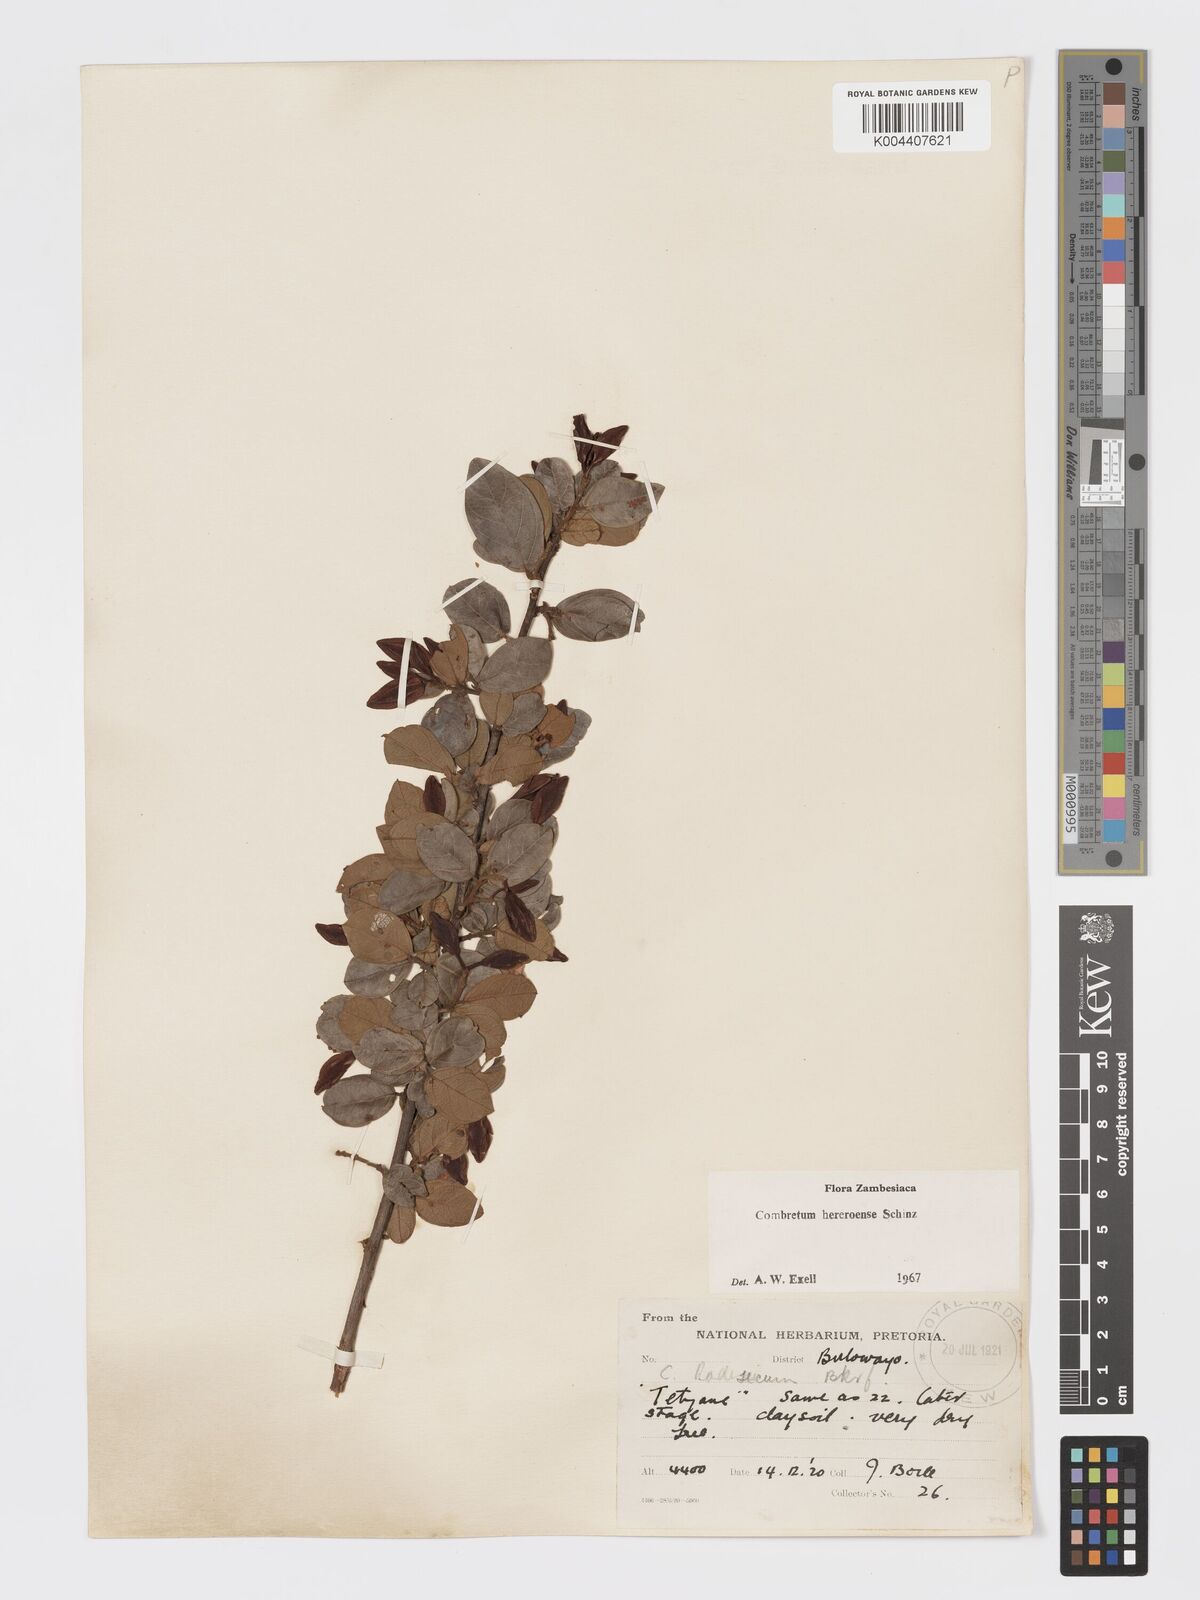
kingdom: Plantae
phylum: Tracheophyta
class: Magnoliopsida
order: Myrtales
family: Combretaceae
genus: Combretum
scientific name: Combretum hereroense
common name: Russet bushwillow
